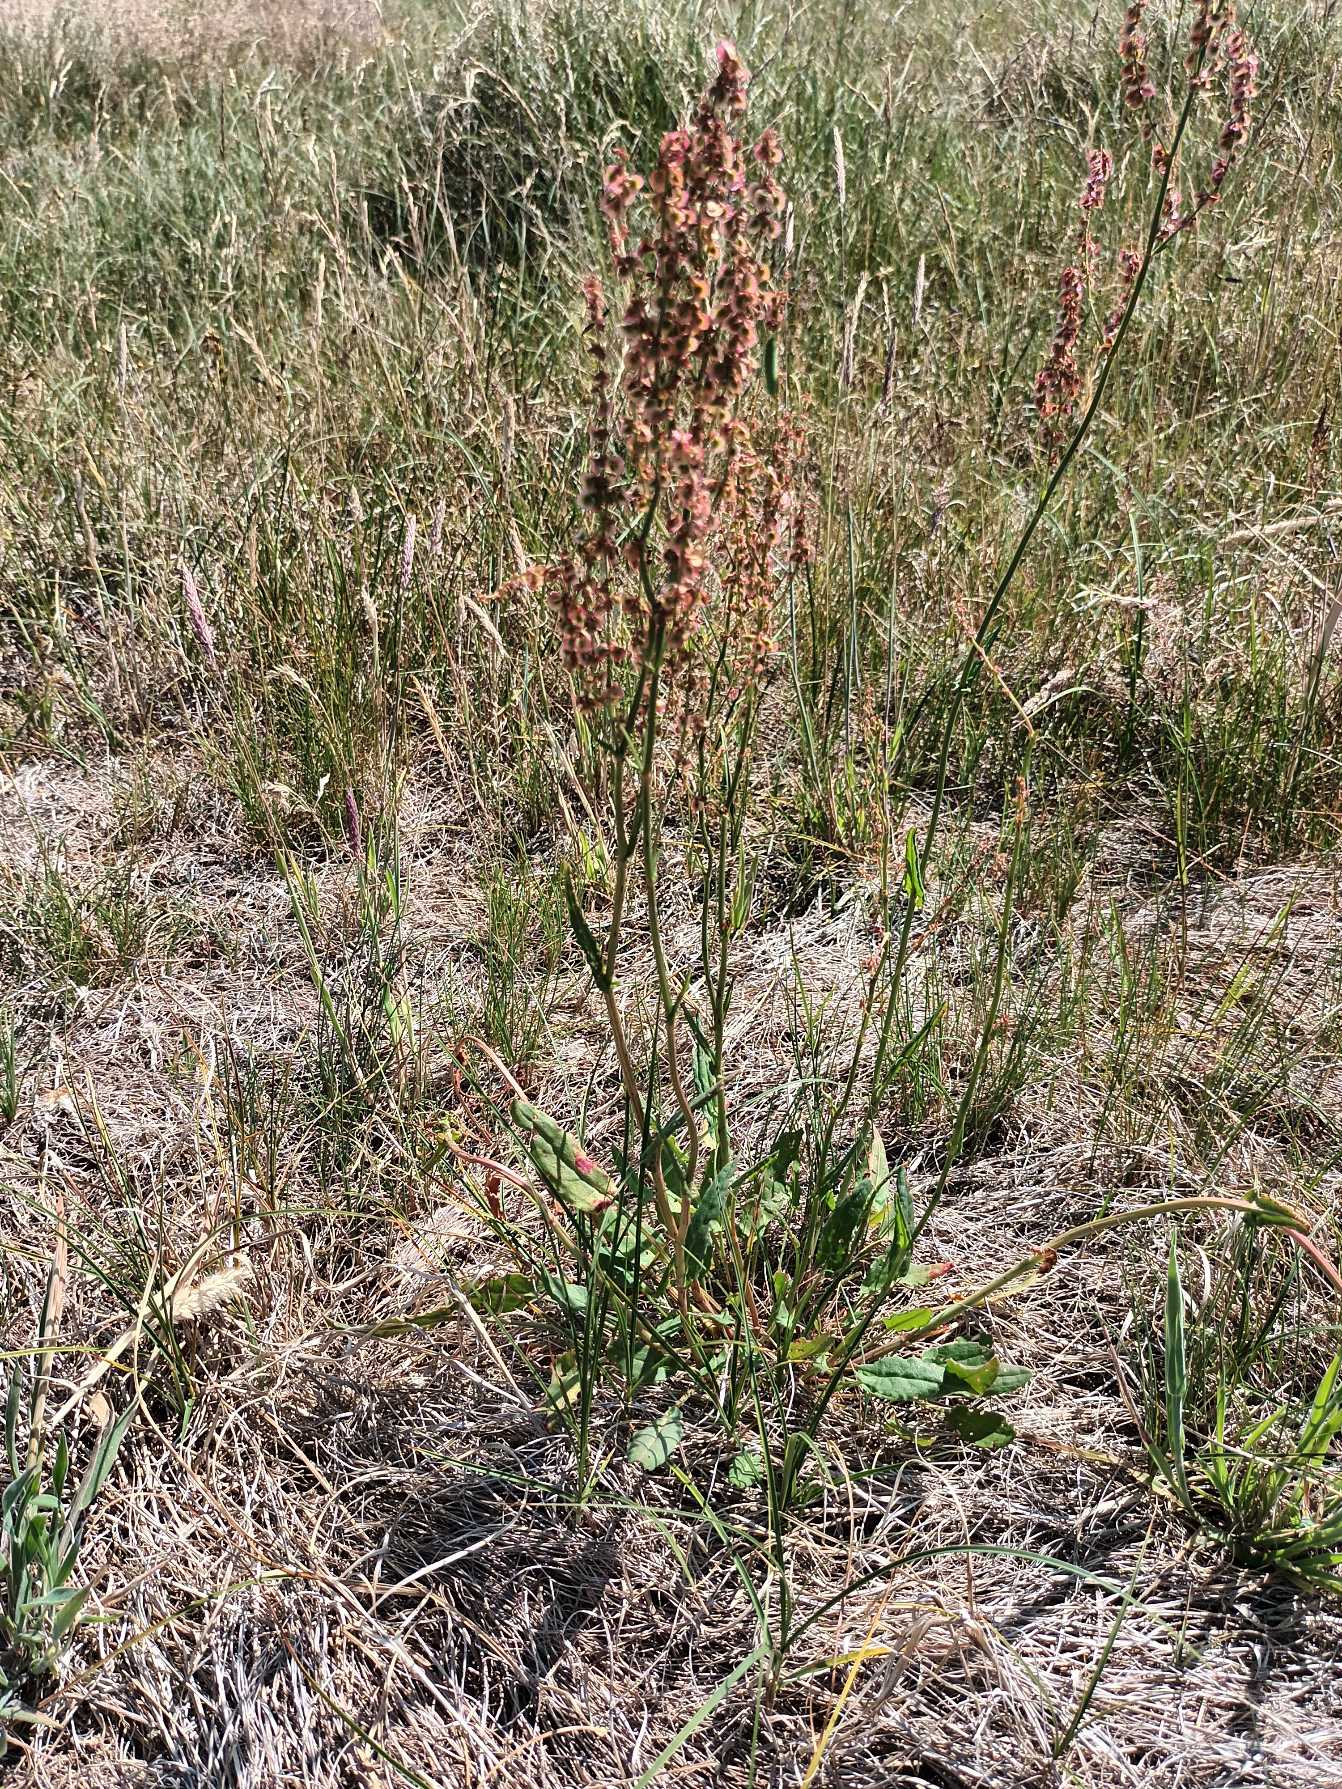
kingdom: Plantae
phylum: Tracheophyta
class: Magnoliopsida
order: Caryophyllales
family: Polygonaceae
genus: Rumex
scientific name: Rumex acetosa
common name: Almindelig syre
